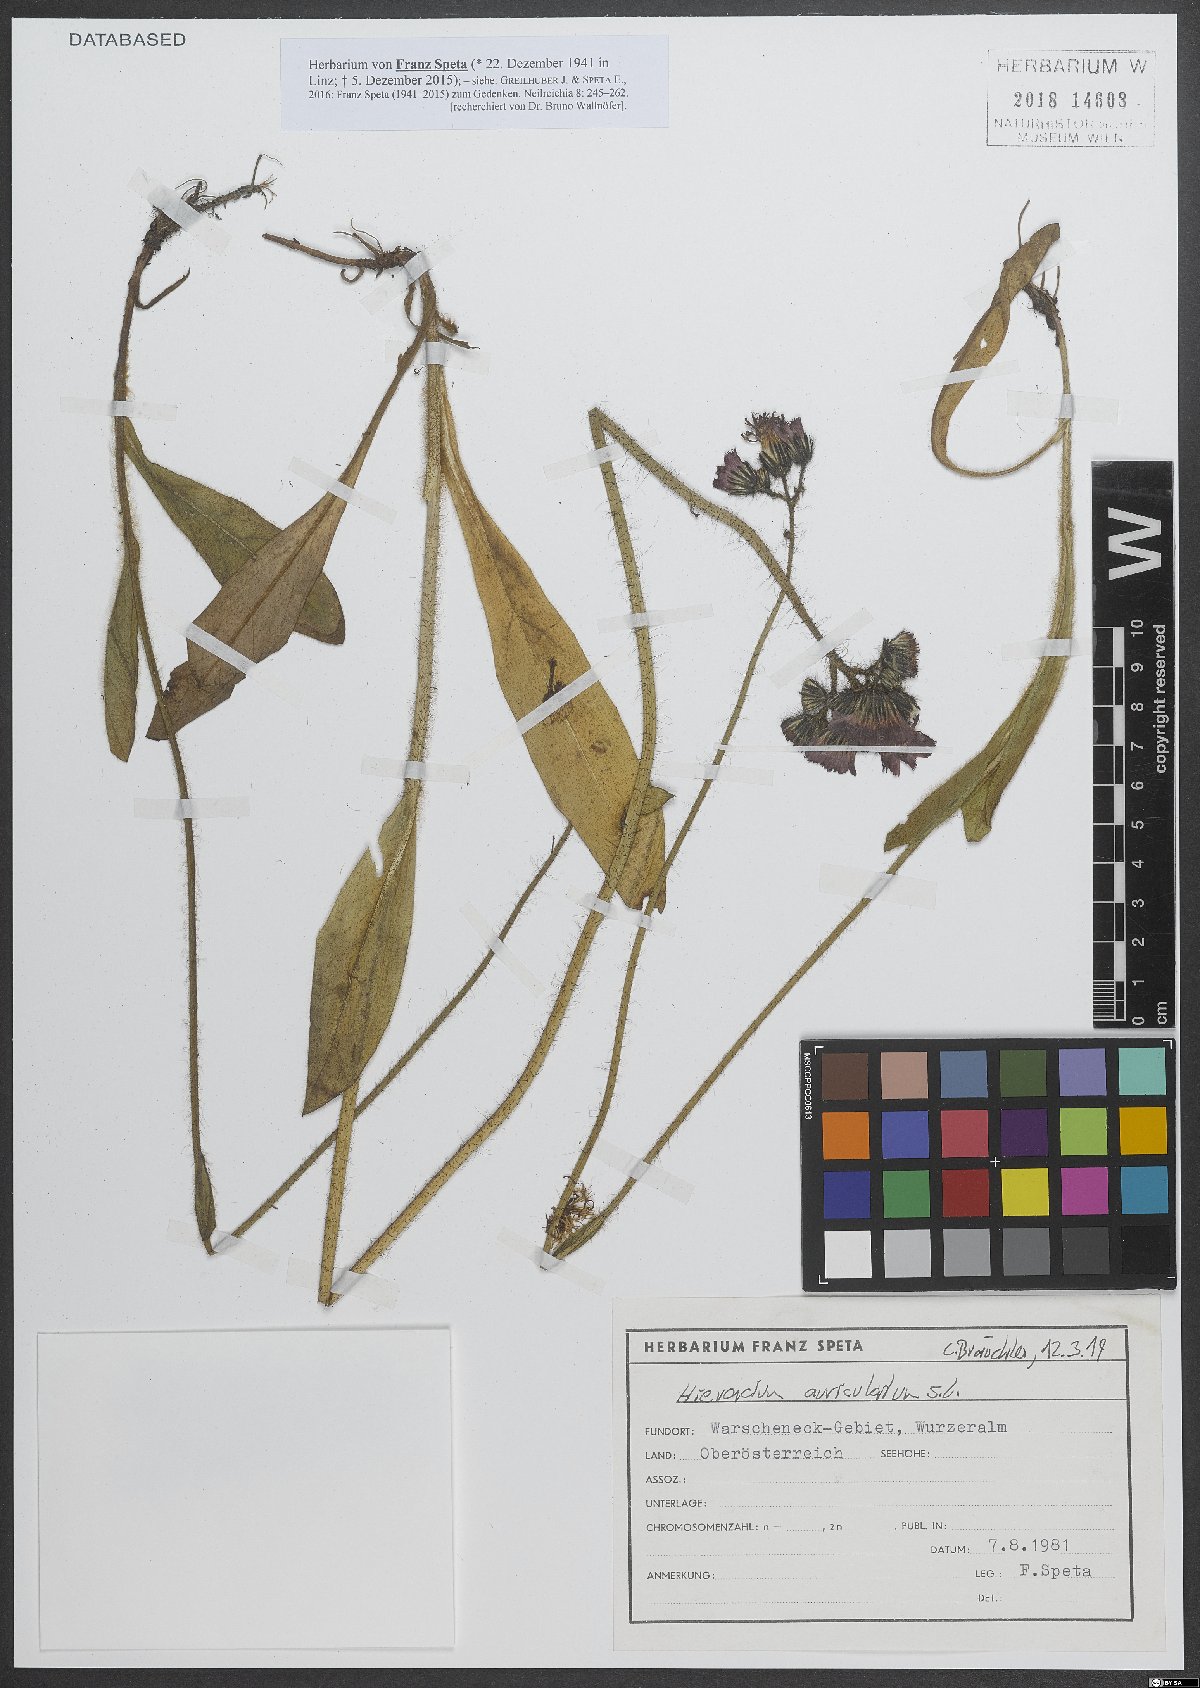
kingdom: Plantae
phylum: Tracheophyta
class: Magnoliopsida
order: Asterales
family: Asteraceae
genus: Pilosella
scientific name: Pilosella aurantiaca
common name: Fox-and-cubs
